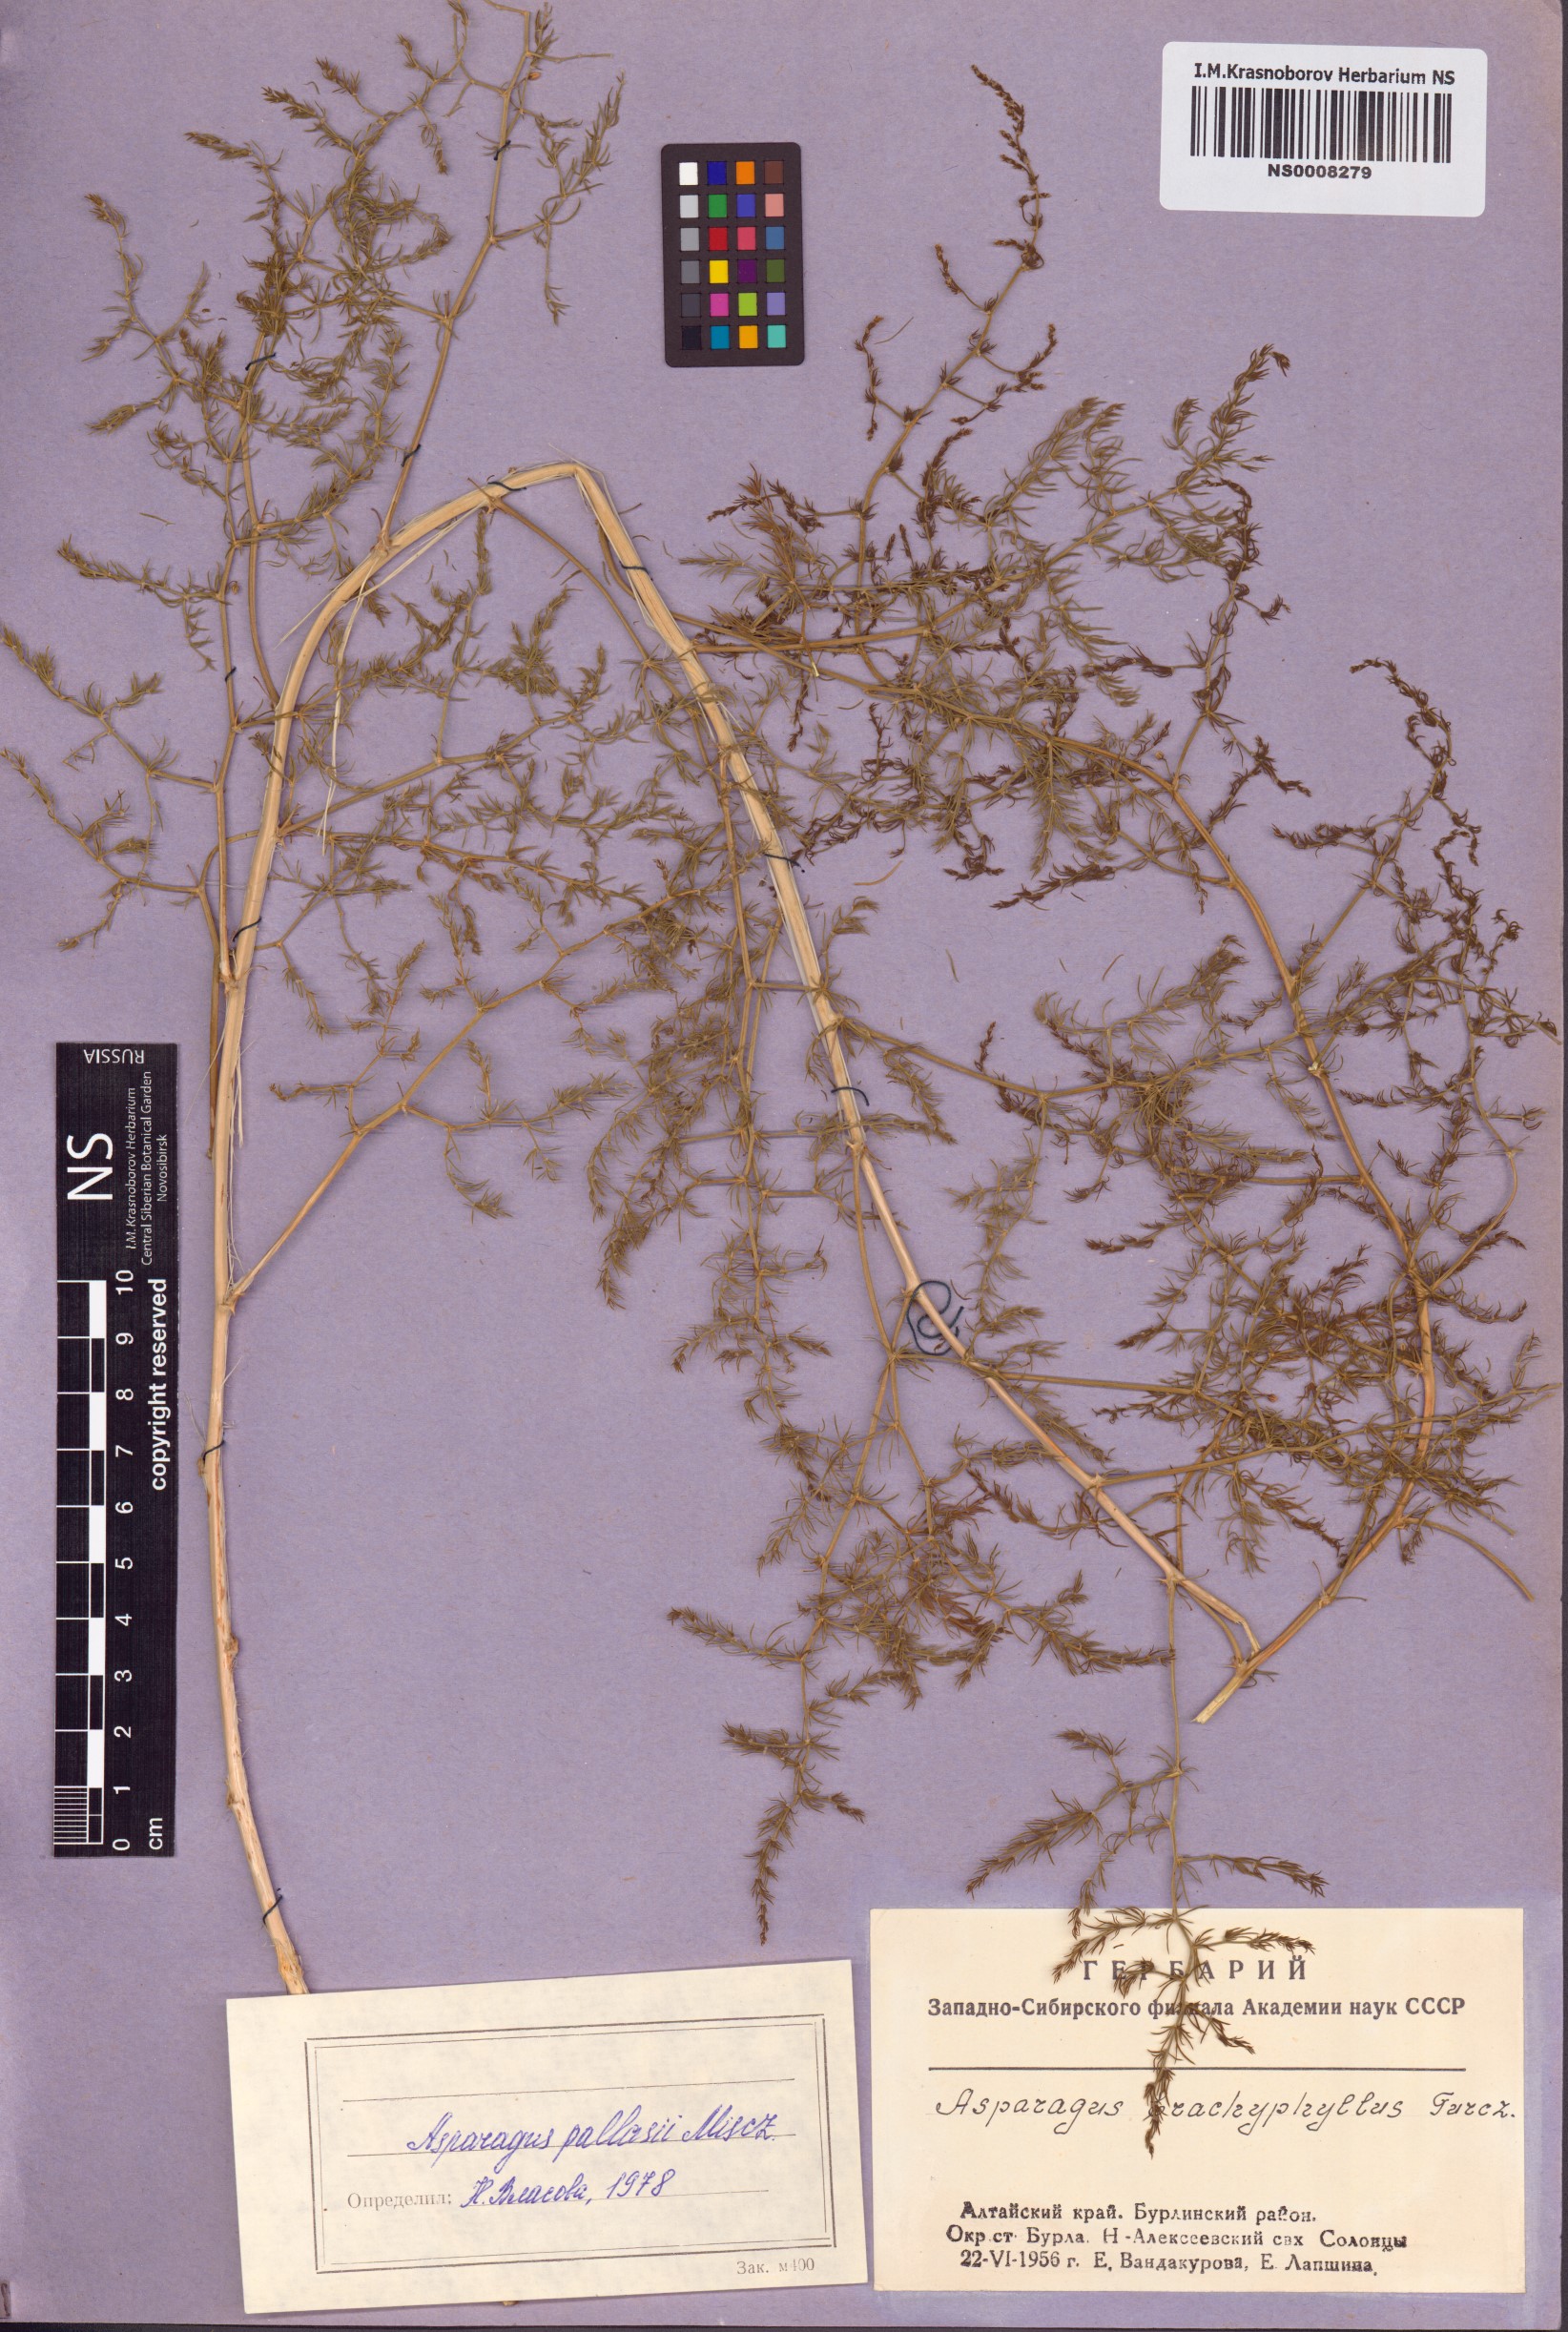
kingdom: Plantae
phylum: Tracheophyta
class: Liliopsida
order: Asparagales
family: Asparagaceae
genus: Asparagus
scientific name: Asparagus pallasii
